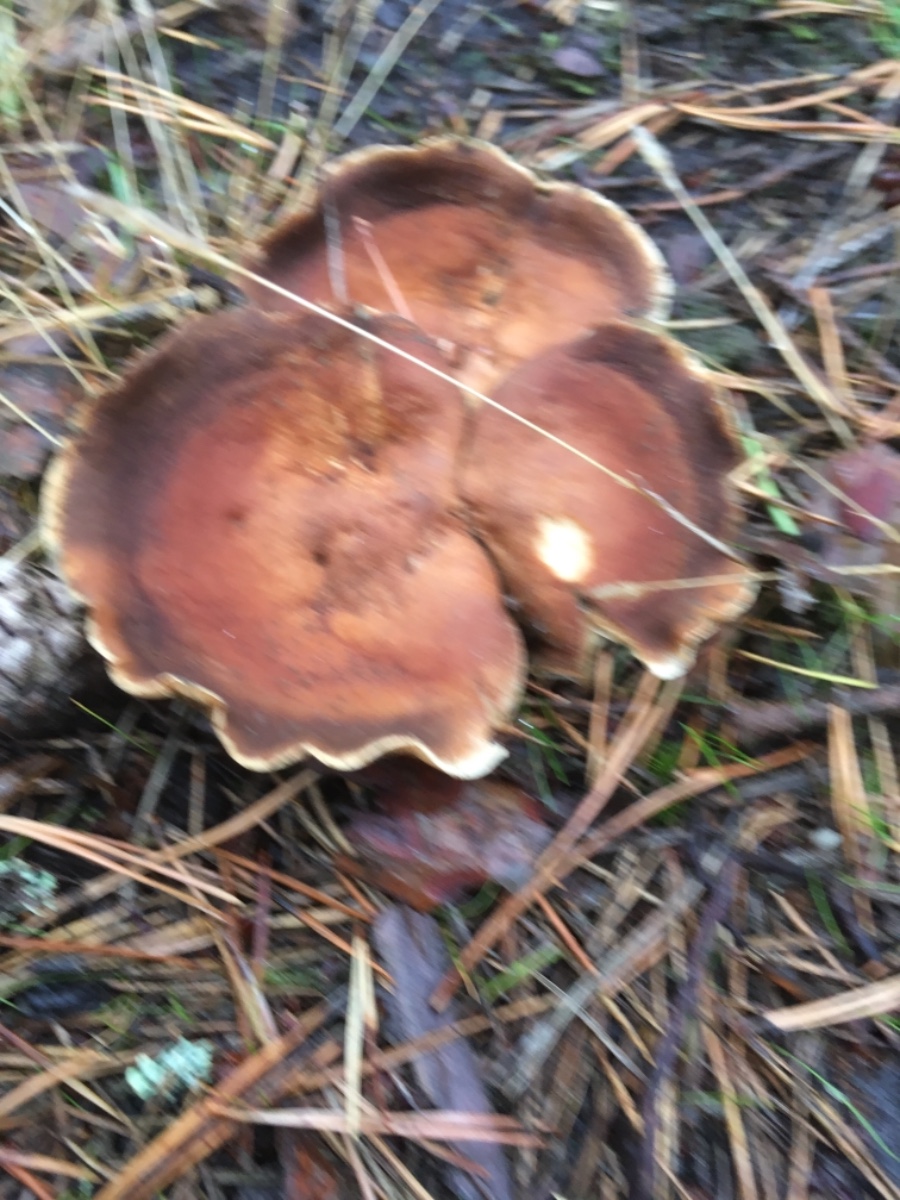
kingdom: Fungi
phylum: Basidiomycota
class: Agaricomycetes
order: Agaricales
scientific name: Agaricales
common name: champignonordenen
